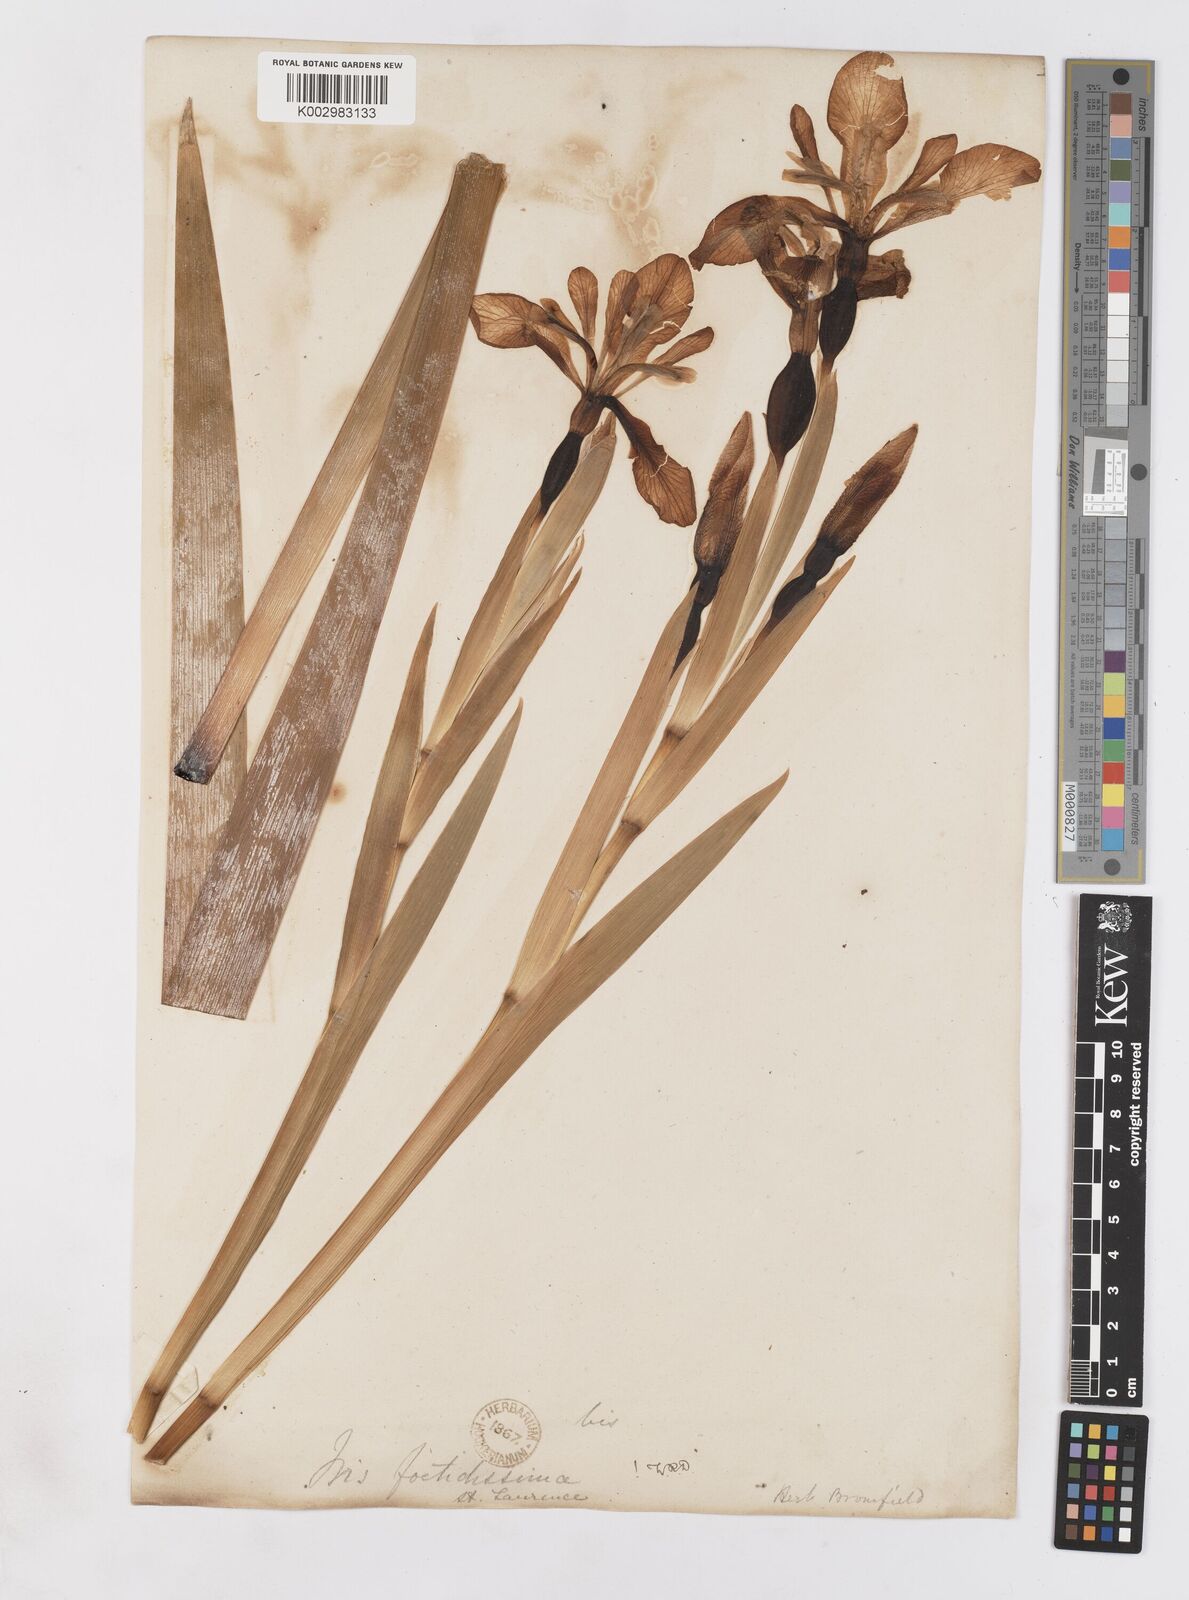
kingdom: Plantae
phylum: Tracheophyta
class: Liliopsida
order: Asparagales
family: Iridaceae
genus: Iris
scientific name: Iris foetidissima
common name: Stinking iris
